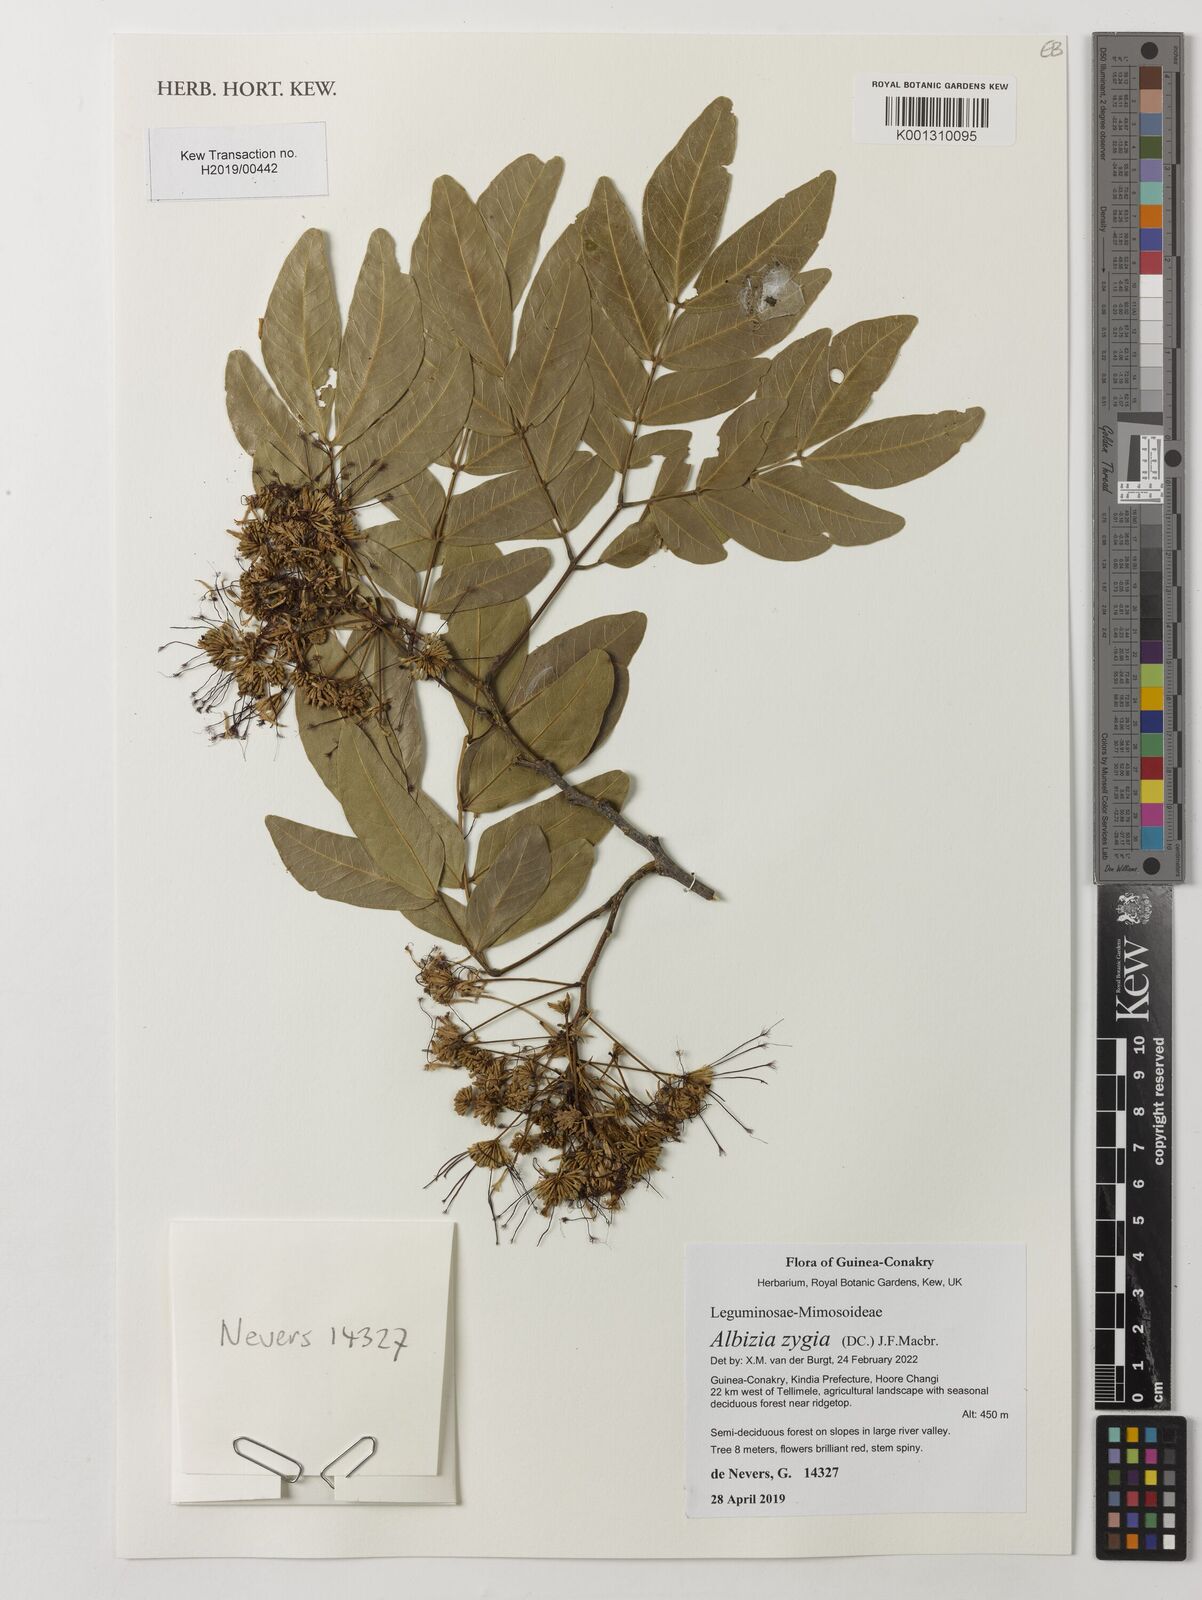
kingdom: Plantae
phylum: Tracheophyta
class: Magnoliopsida
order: Fabales
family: Fabaceae
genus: Albizia
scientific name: Albizia zygia
